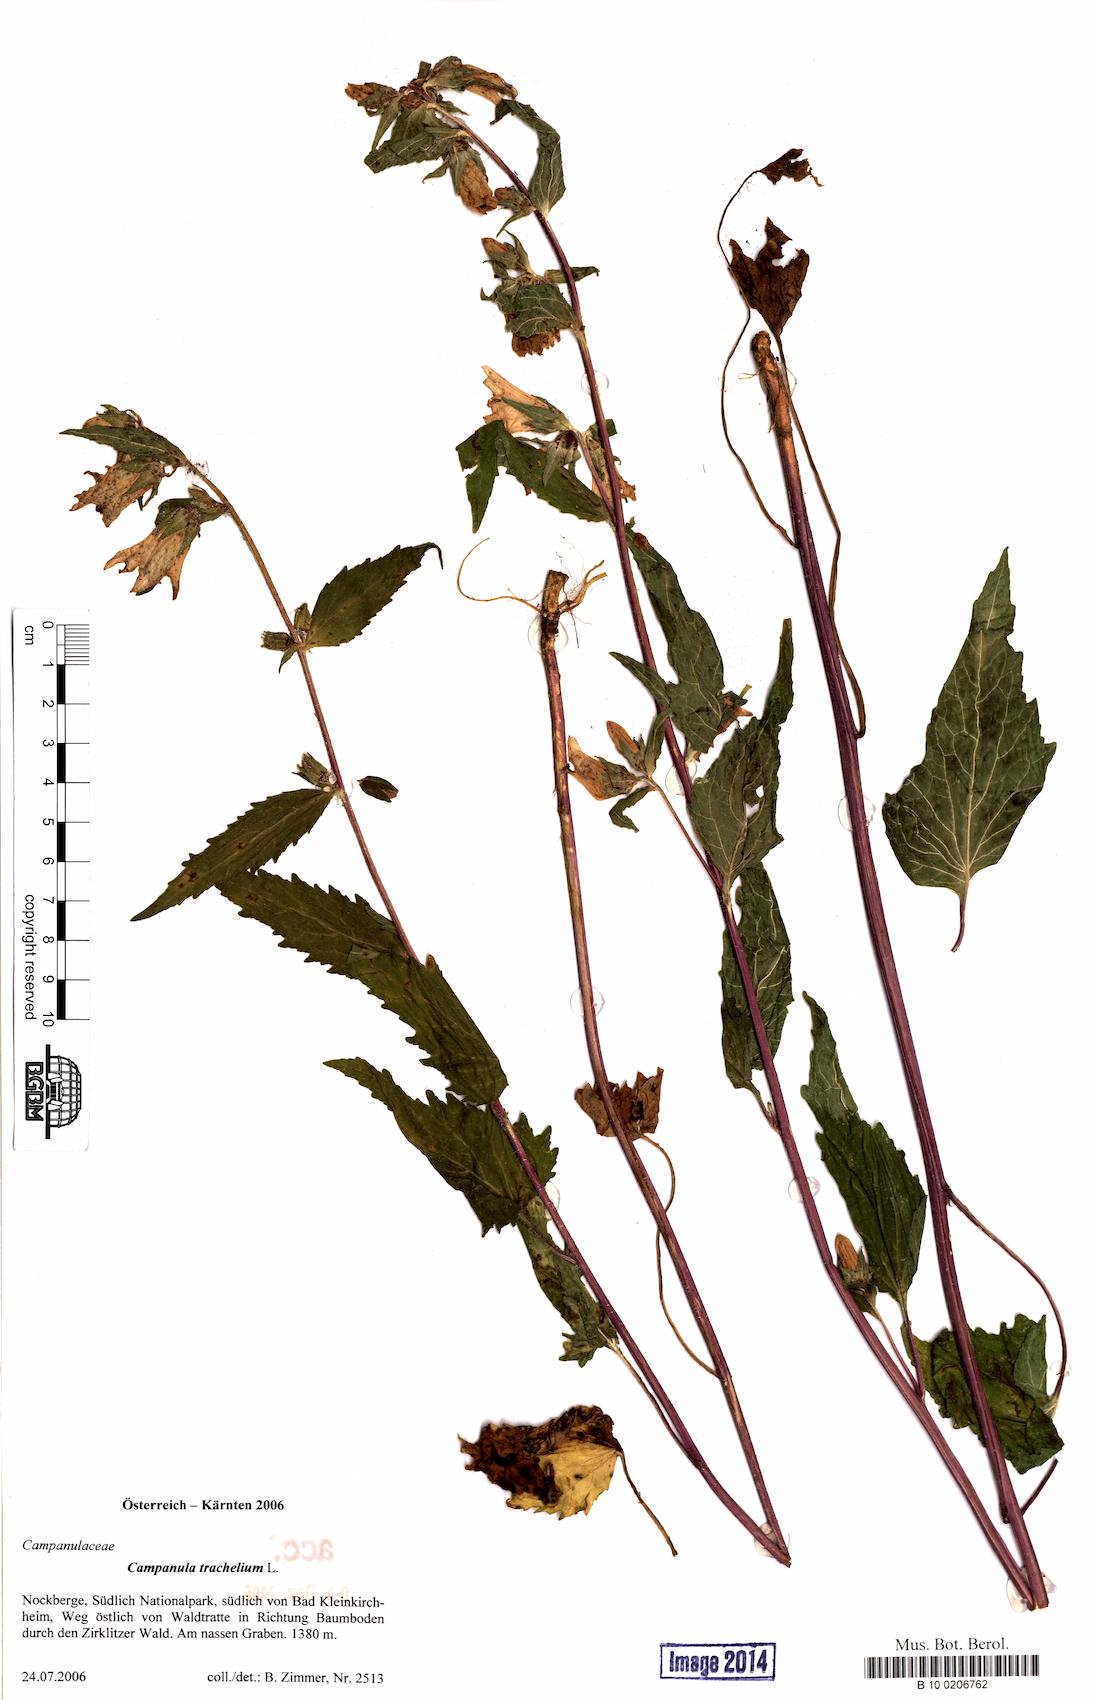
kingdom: Plantae
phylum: Tracheophyta
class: Magnoliopsida
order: Asterales
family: Campanulaceae
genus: Campanula
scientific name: Campanula trachelium
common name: Nettle-leaved bellflower
